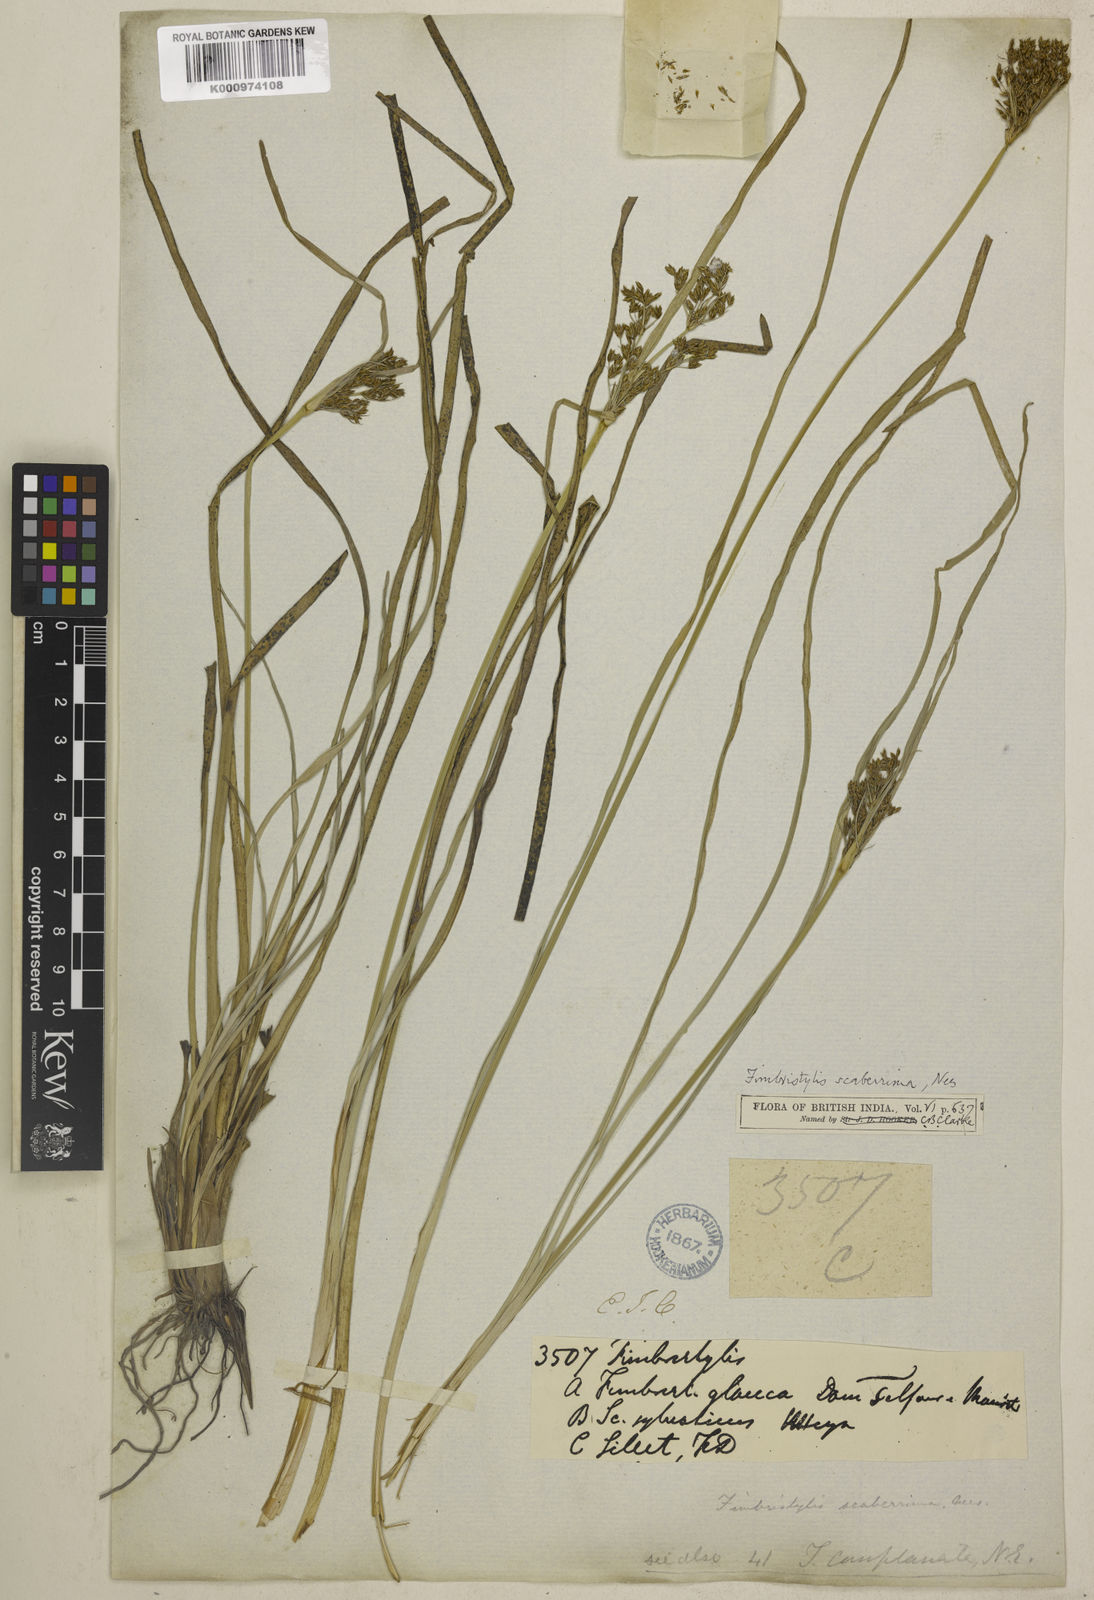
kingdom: Plantae
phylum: Tracheophyta
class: Liliopsida
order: Poales
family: Cyperaceae
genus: Fimbristylis
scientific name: Fimbristylis scaberrima
